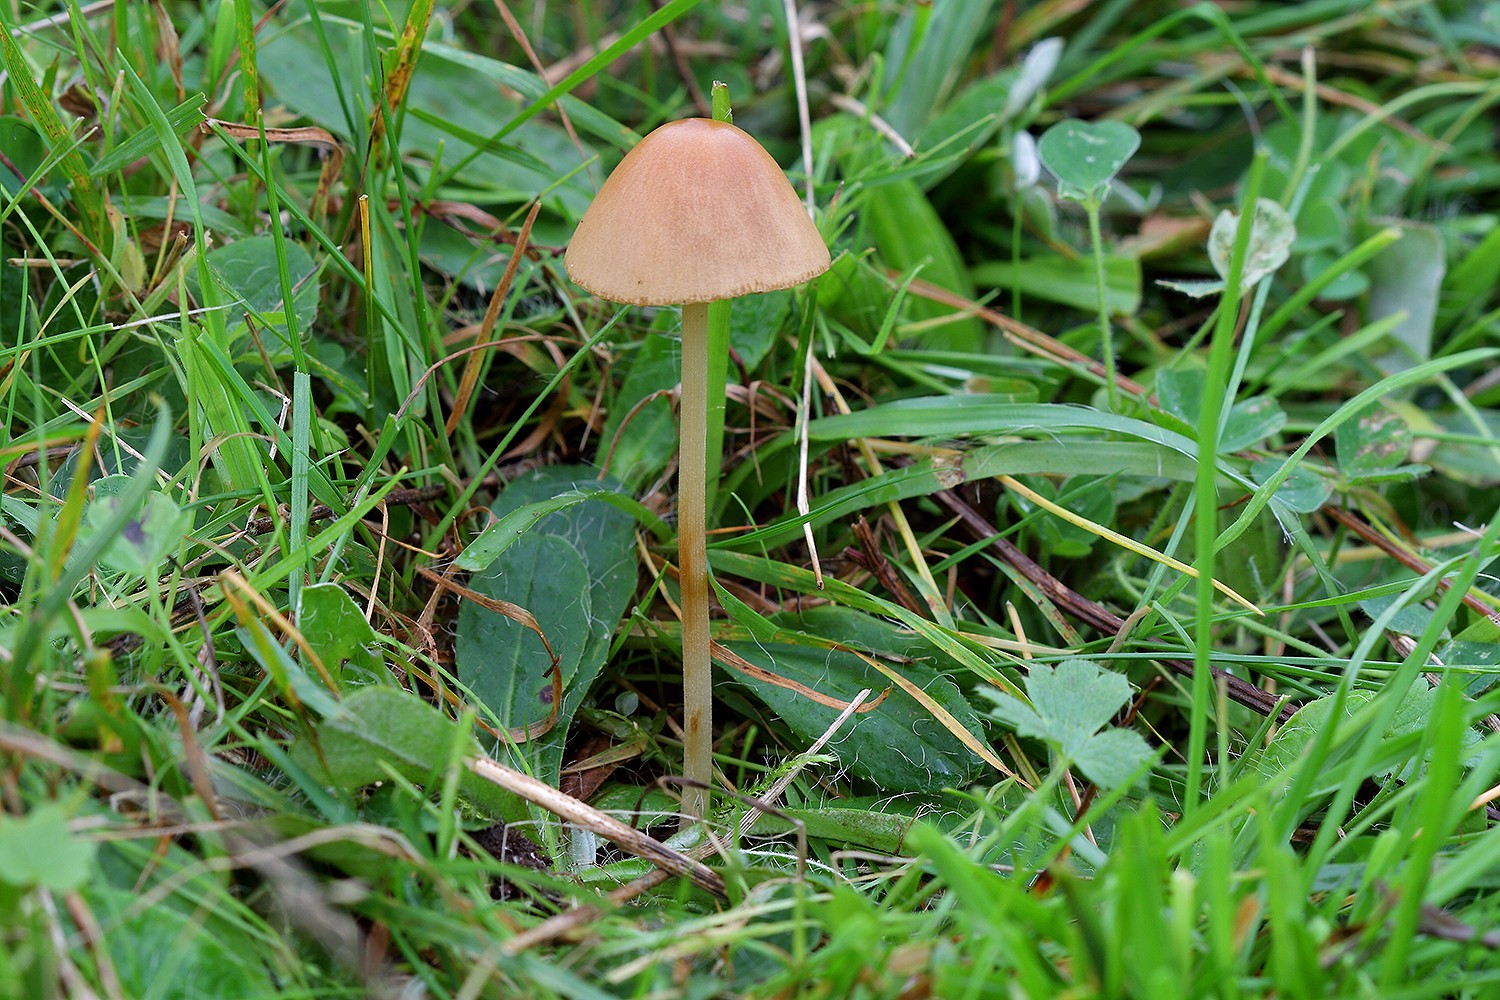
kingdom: Fungi
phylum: Basidiomycota
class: Agaricomycetes
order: Agaricales
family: Bolbitiaceae
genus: Conocybe
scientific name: Conocybe alboradicans
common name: rod-keglehat
